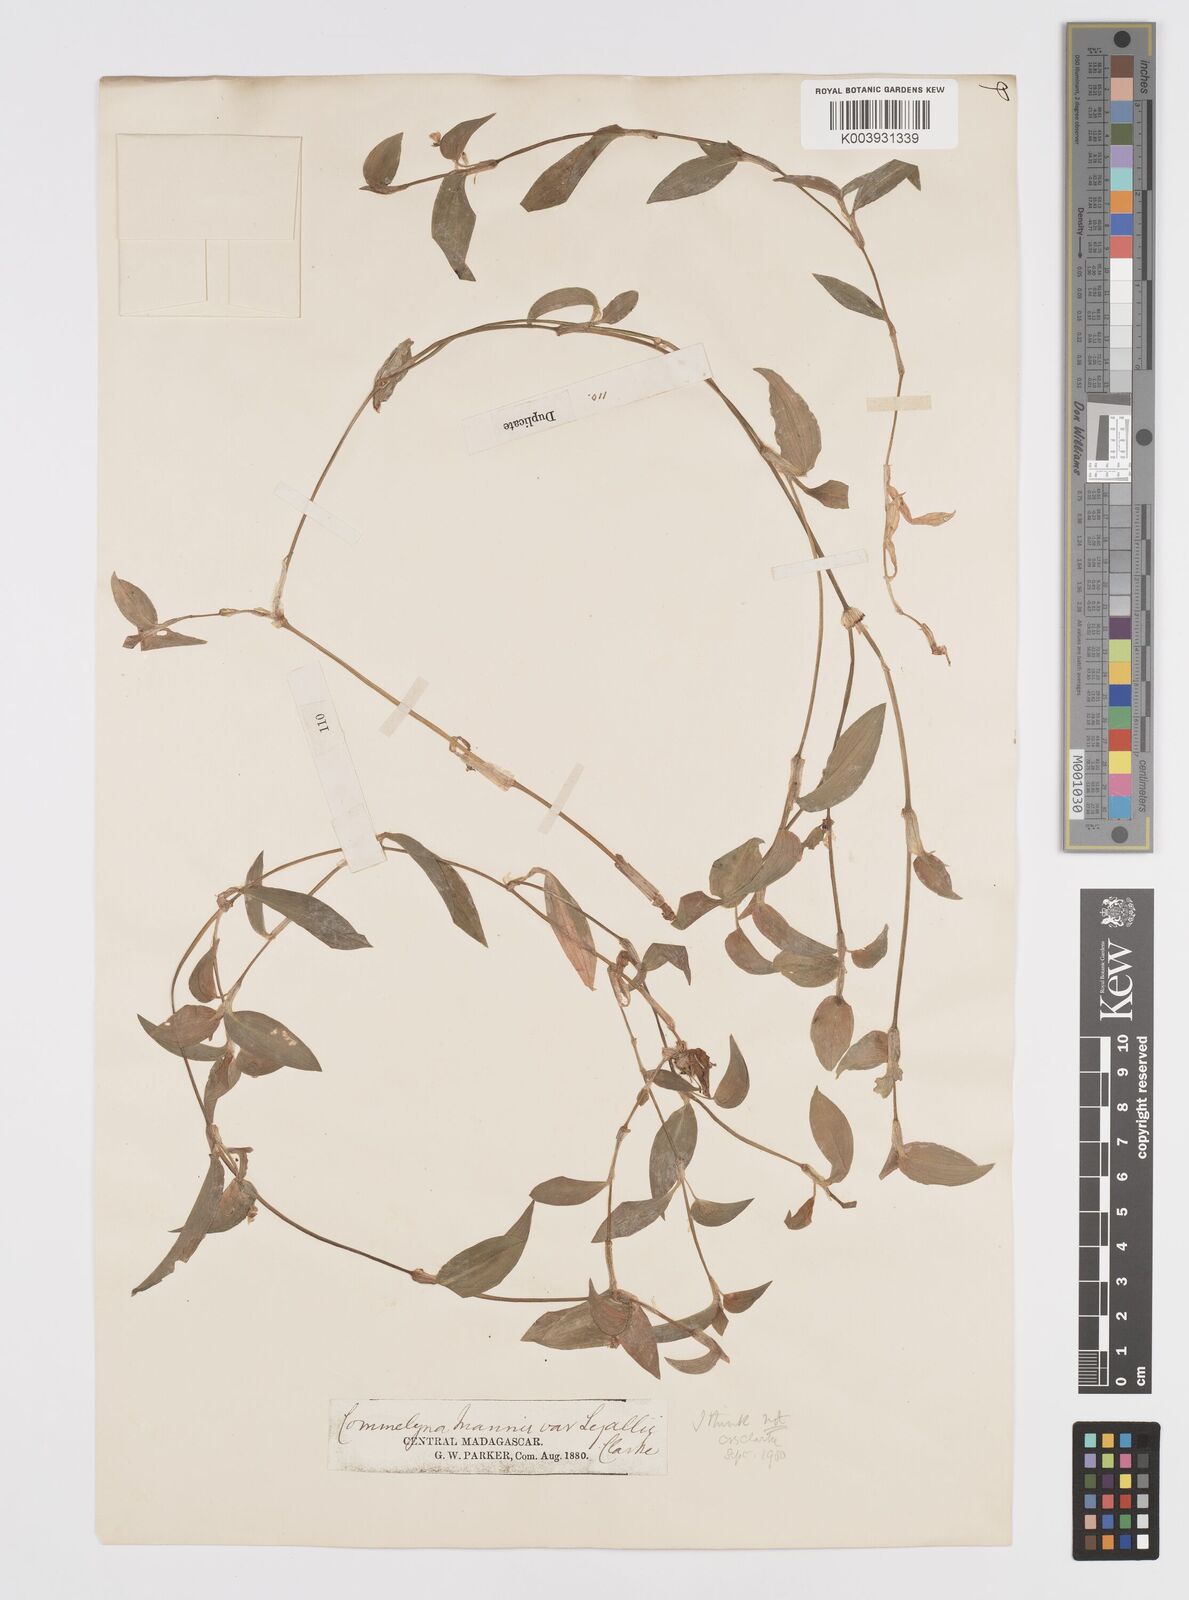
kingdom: Plantae
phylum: Tracheophyta
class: Liliopsida
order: Commelinales
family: Commelinaceae
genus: Commelina
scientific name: Commelina africana
